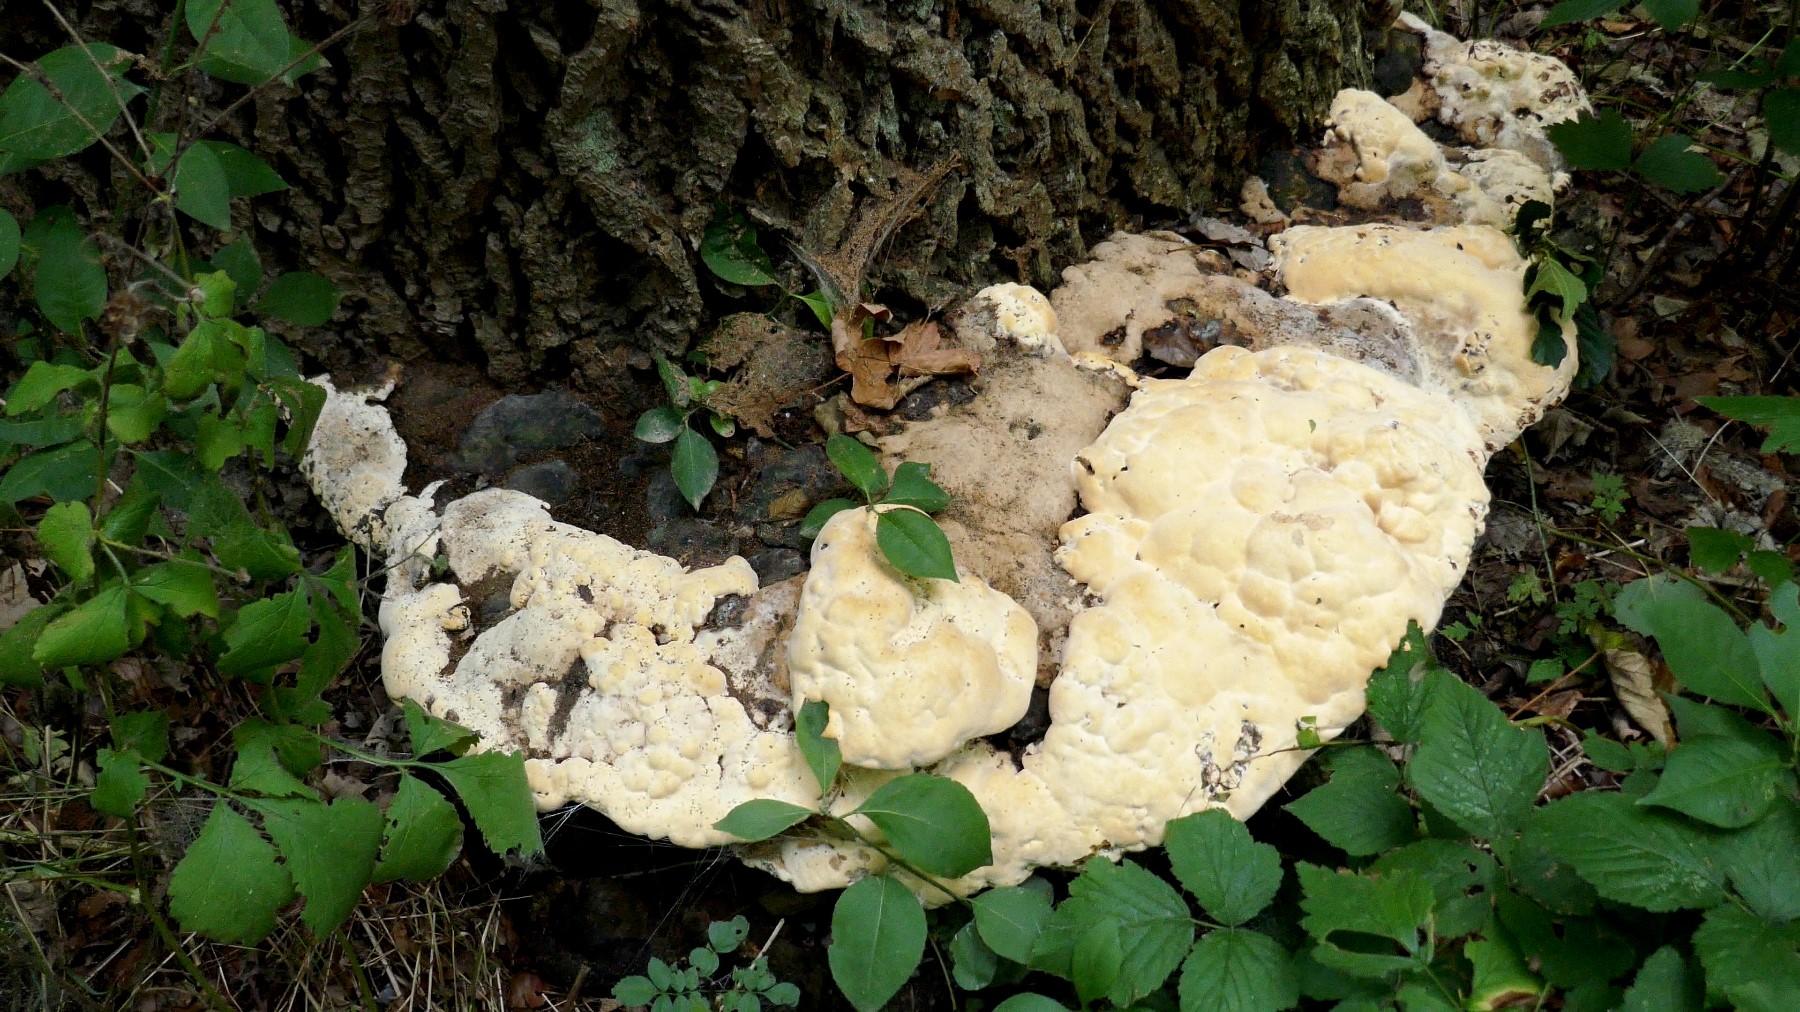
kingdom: Fungi
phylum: Basidiomycota
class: Agaricomycetes
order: Polyporales
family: Polyporaceae
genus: Vanderbylia
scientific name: Vanderbylia fraxinea
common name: stor kanelporesvamp
